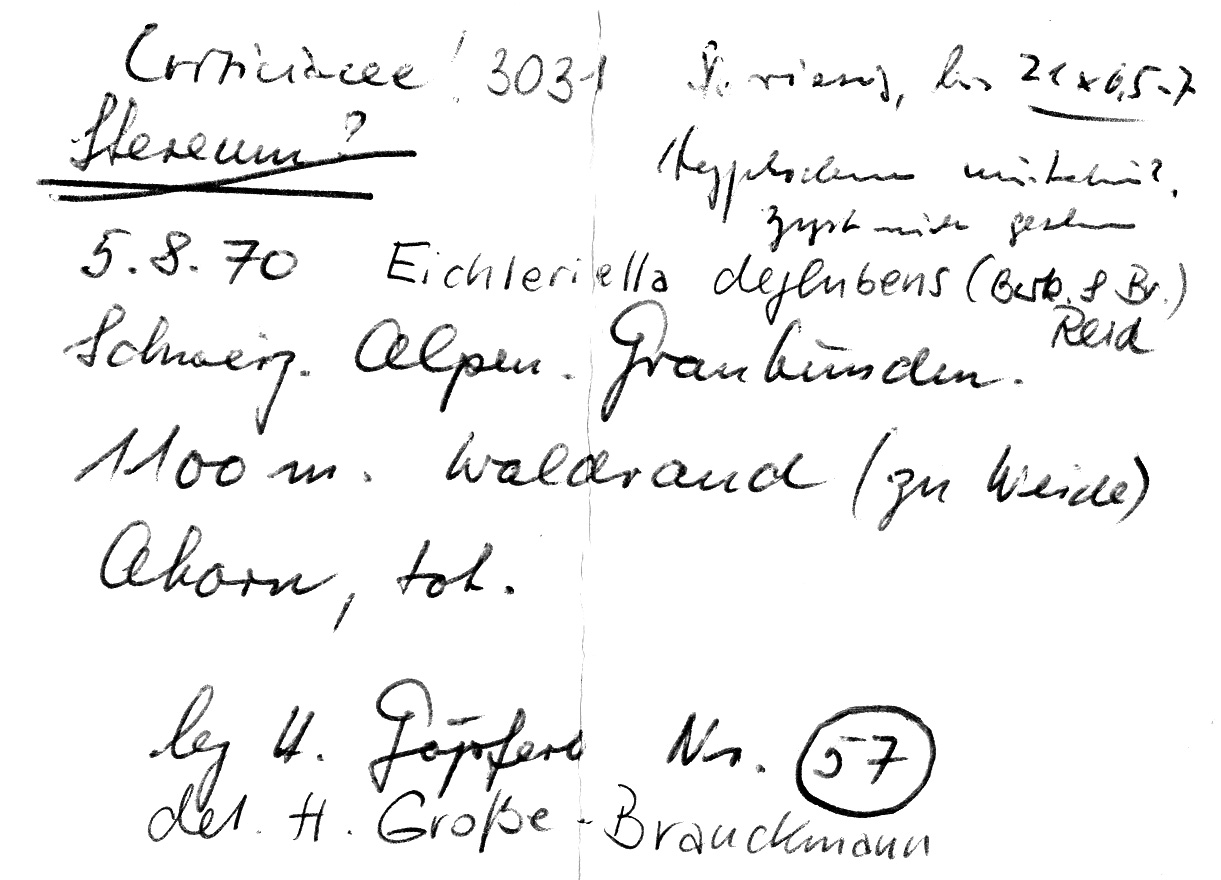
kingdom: Fungi
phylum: Basidiomycota
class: Agaricomycetes
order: Auriculariales
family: Auriculariaceae
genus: Heteroradulum
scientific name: Heteroradulum deglubens
